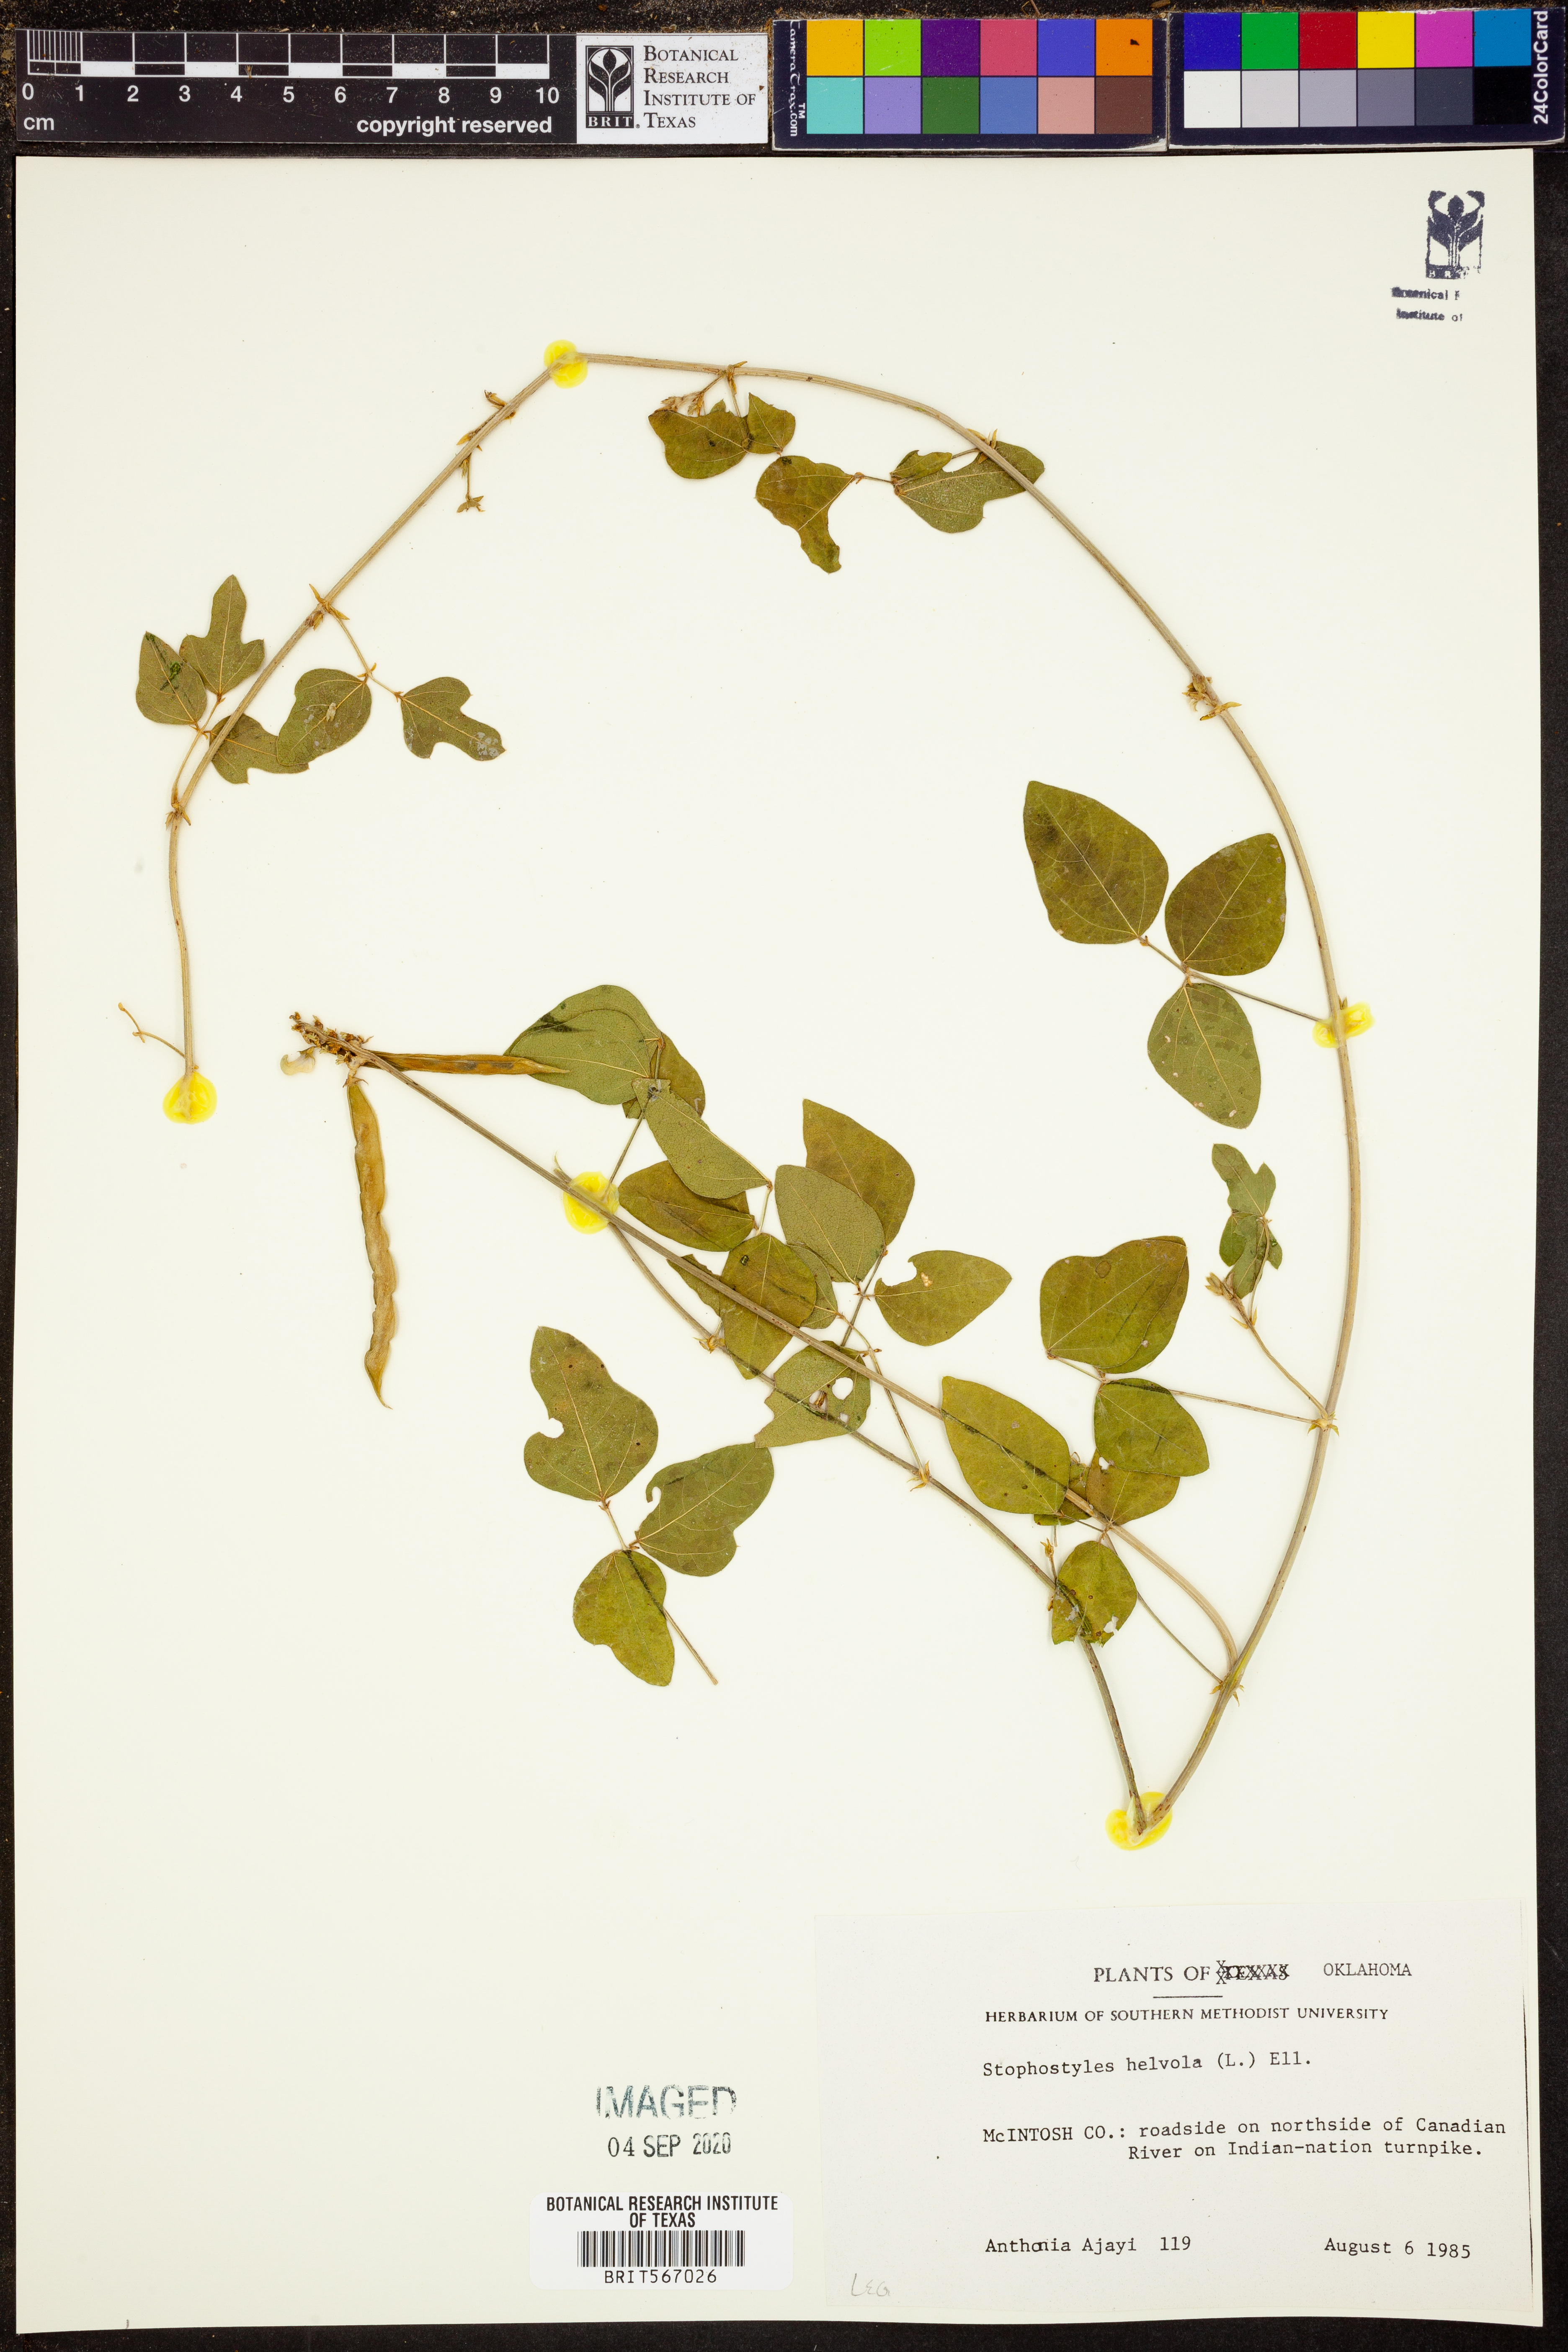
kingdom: Plantae
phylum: Tracheophyta
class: Magnoliopsida
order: Fabales
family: Fabaceae
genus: Strophostyles
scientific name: Strophostyles helvola
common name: Trailing wild bean
